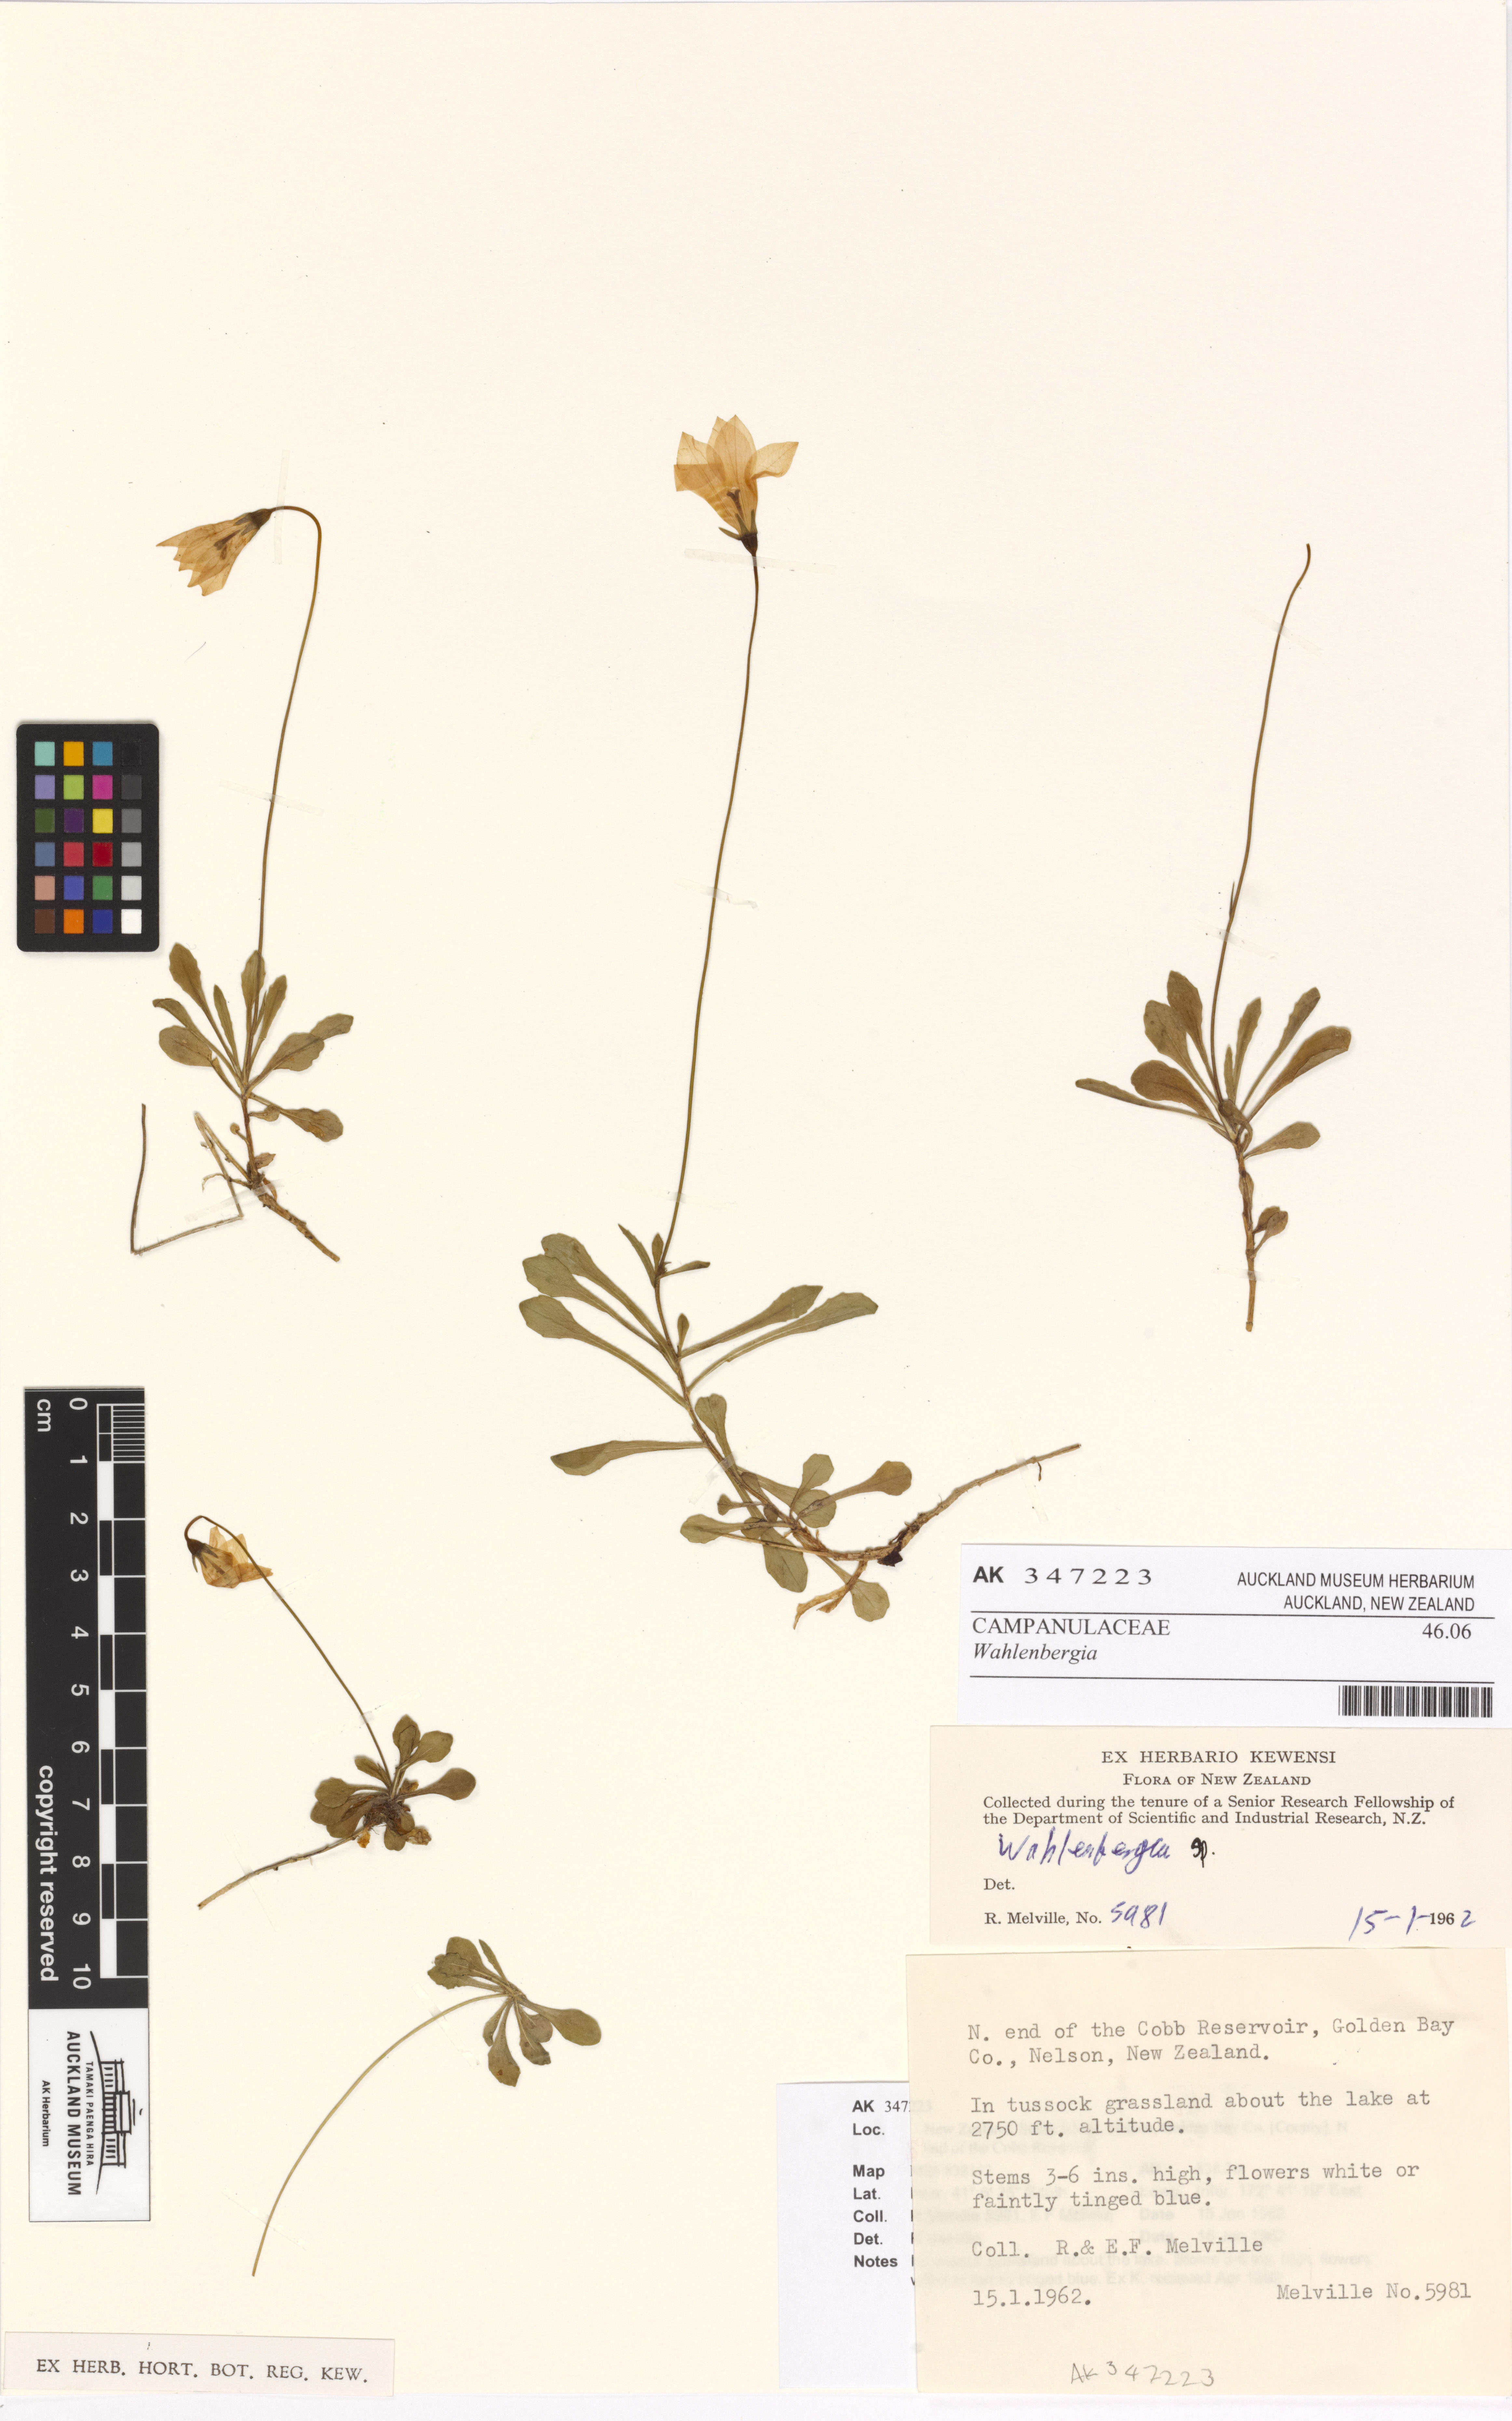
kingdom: Plantae
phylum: Tracheophyta
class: Magnoliopsida
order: Asterales
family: Campanulaceae
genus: Wahlenbergia
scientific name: Wahlenbergia
